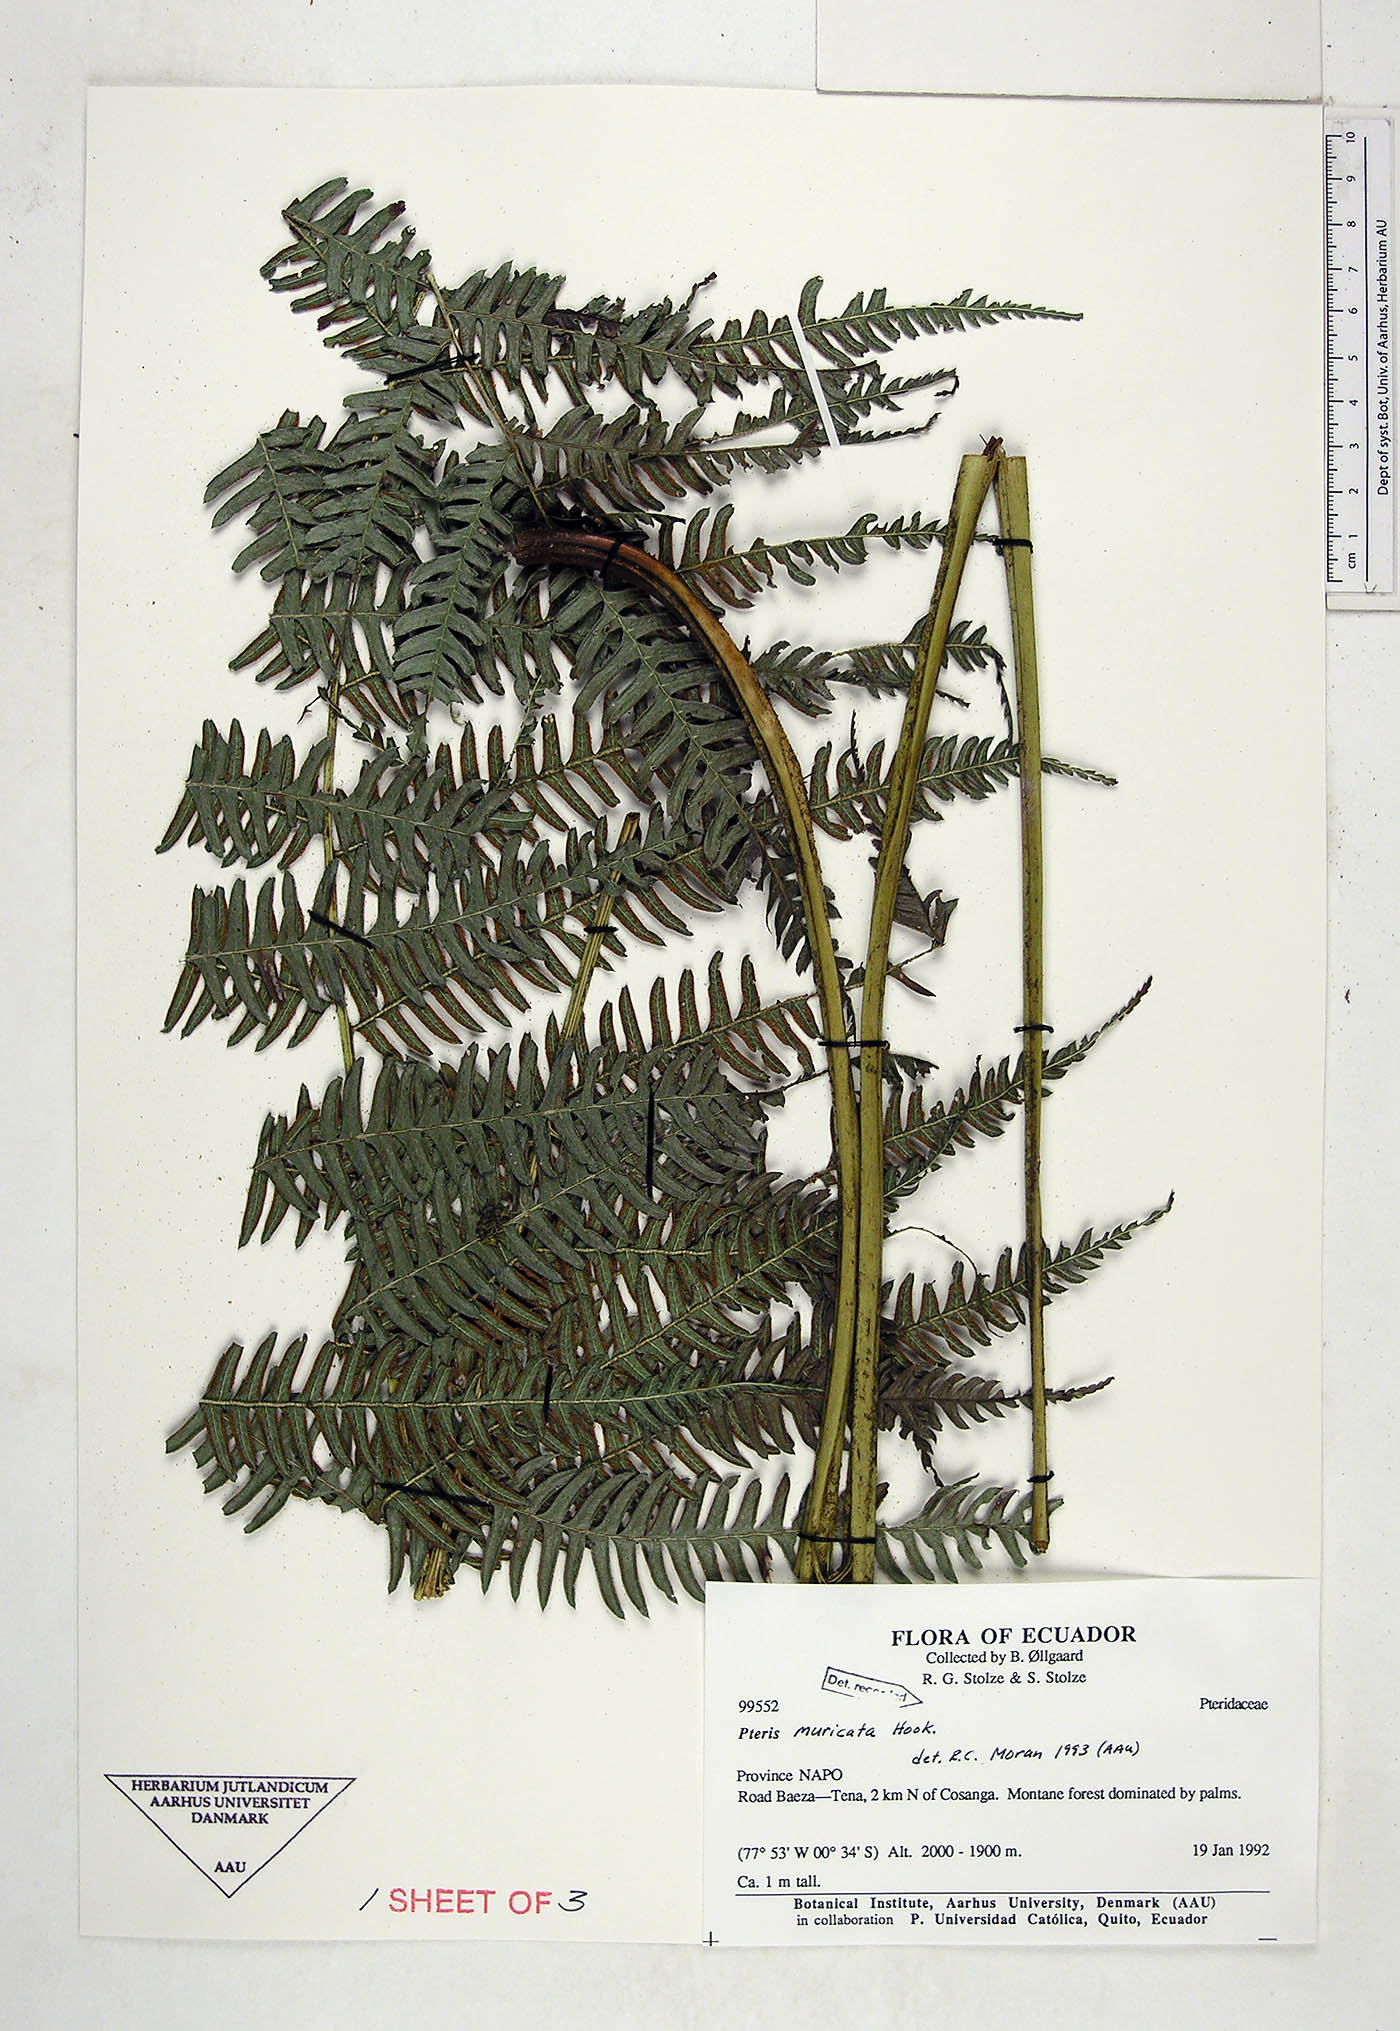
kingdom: Plantae
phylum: Tracheophyta
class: Polypodiopsida
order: Polypodiales
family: Pteridaceae
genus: Pteris
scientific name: Pteris muricata
